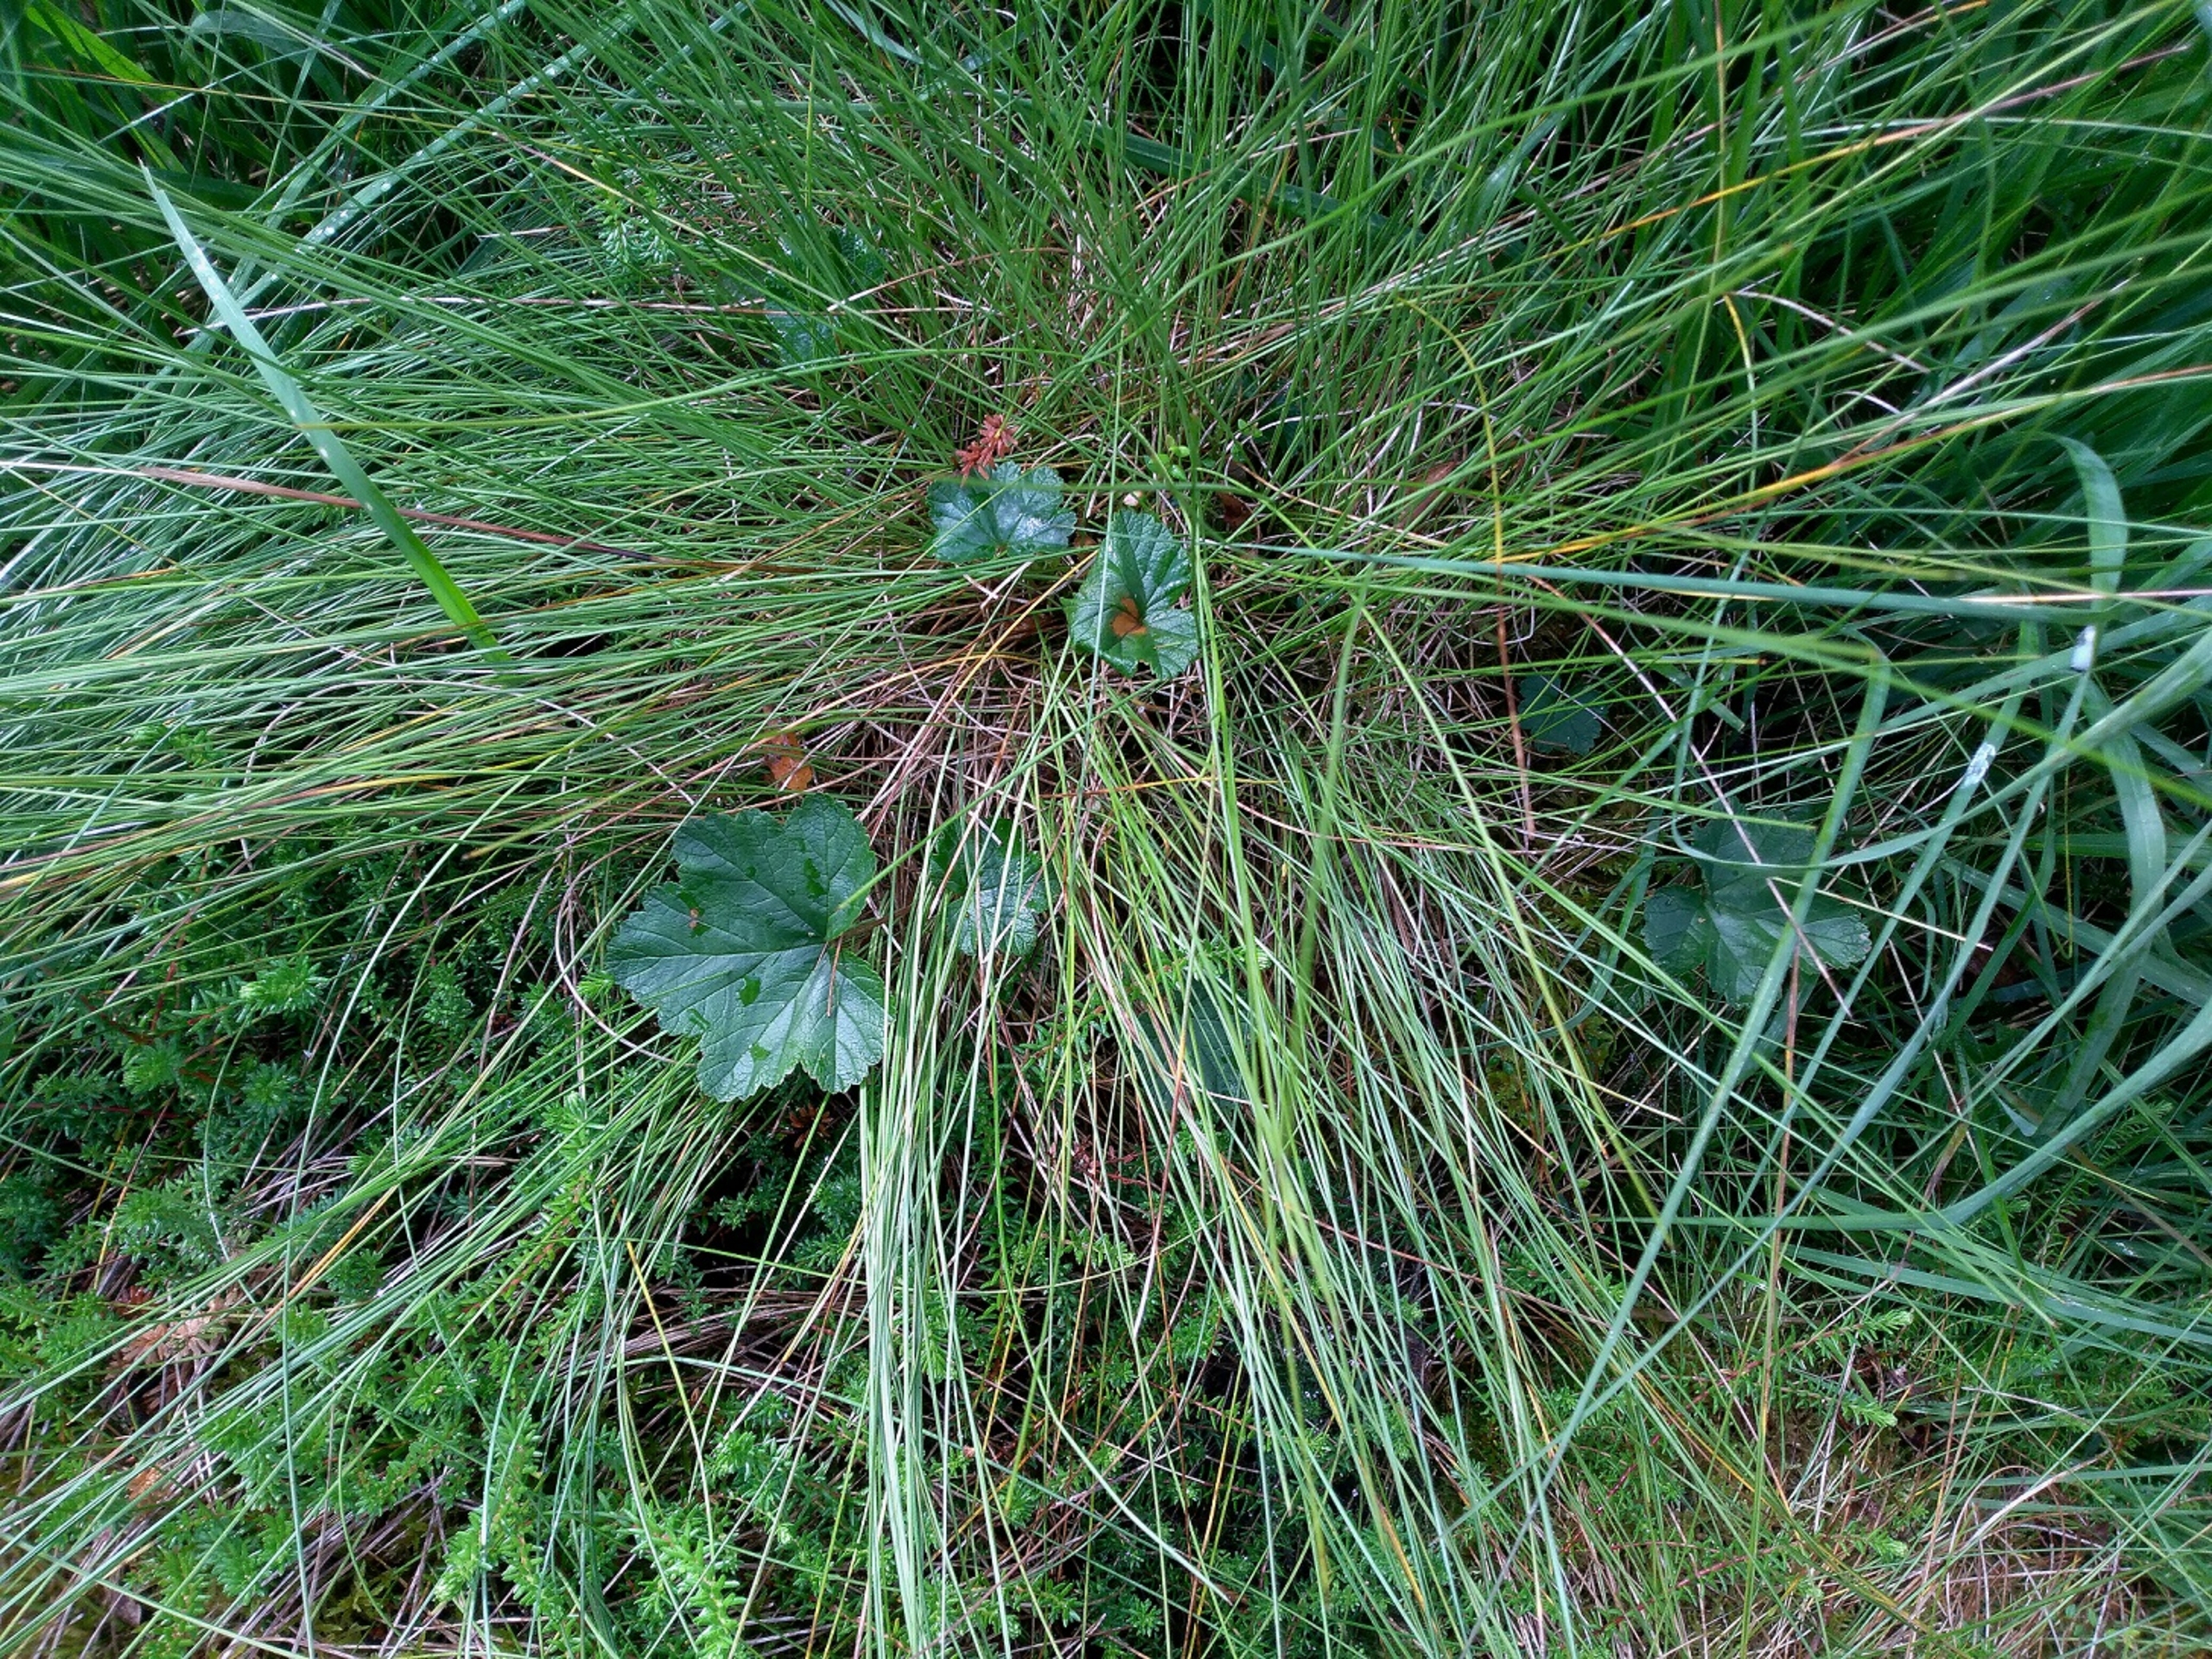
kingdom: Plantae
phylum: Tracheophyta
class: Magnoliopsida
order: Rosales
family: Rosaceae
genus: Rubus
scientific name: Rubus chamaemorus
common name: Multebær
